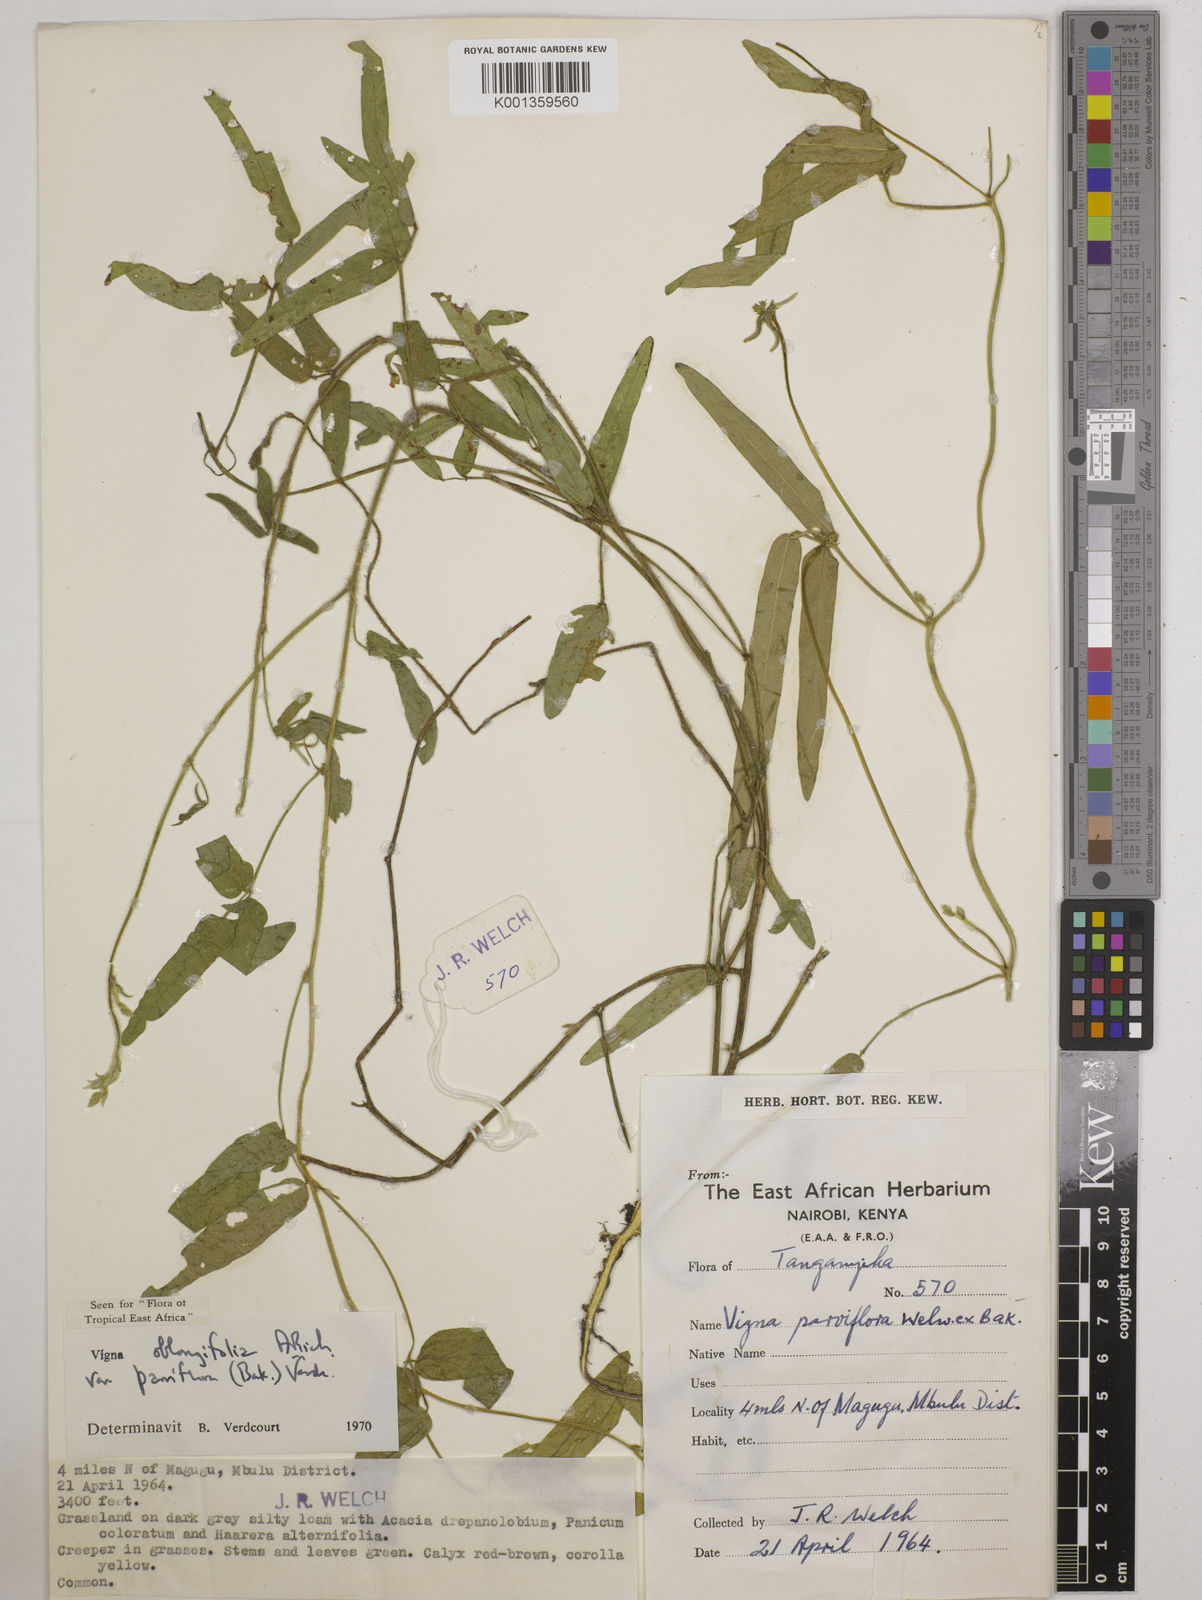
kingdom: Plantae
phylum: Tracheophyta
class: Magnoliopsida
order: Fabales
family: Fabaceae
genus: Vigna
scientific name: Vigna
